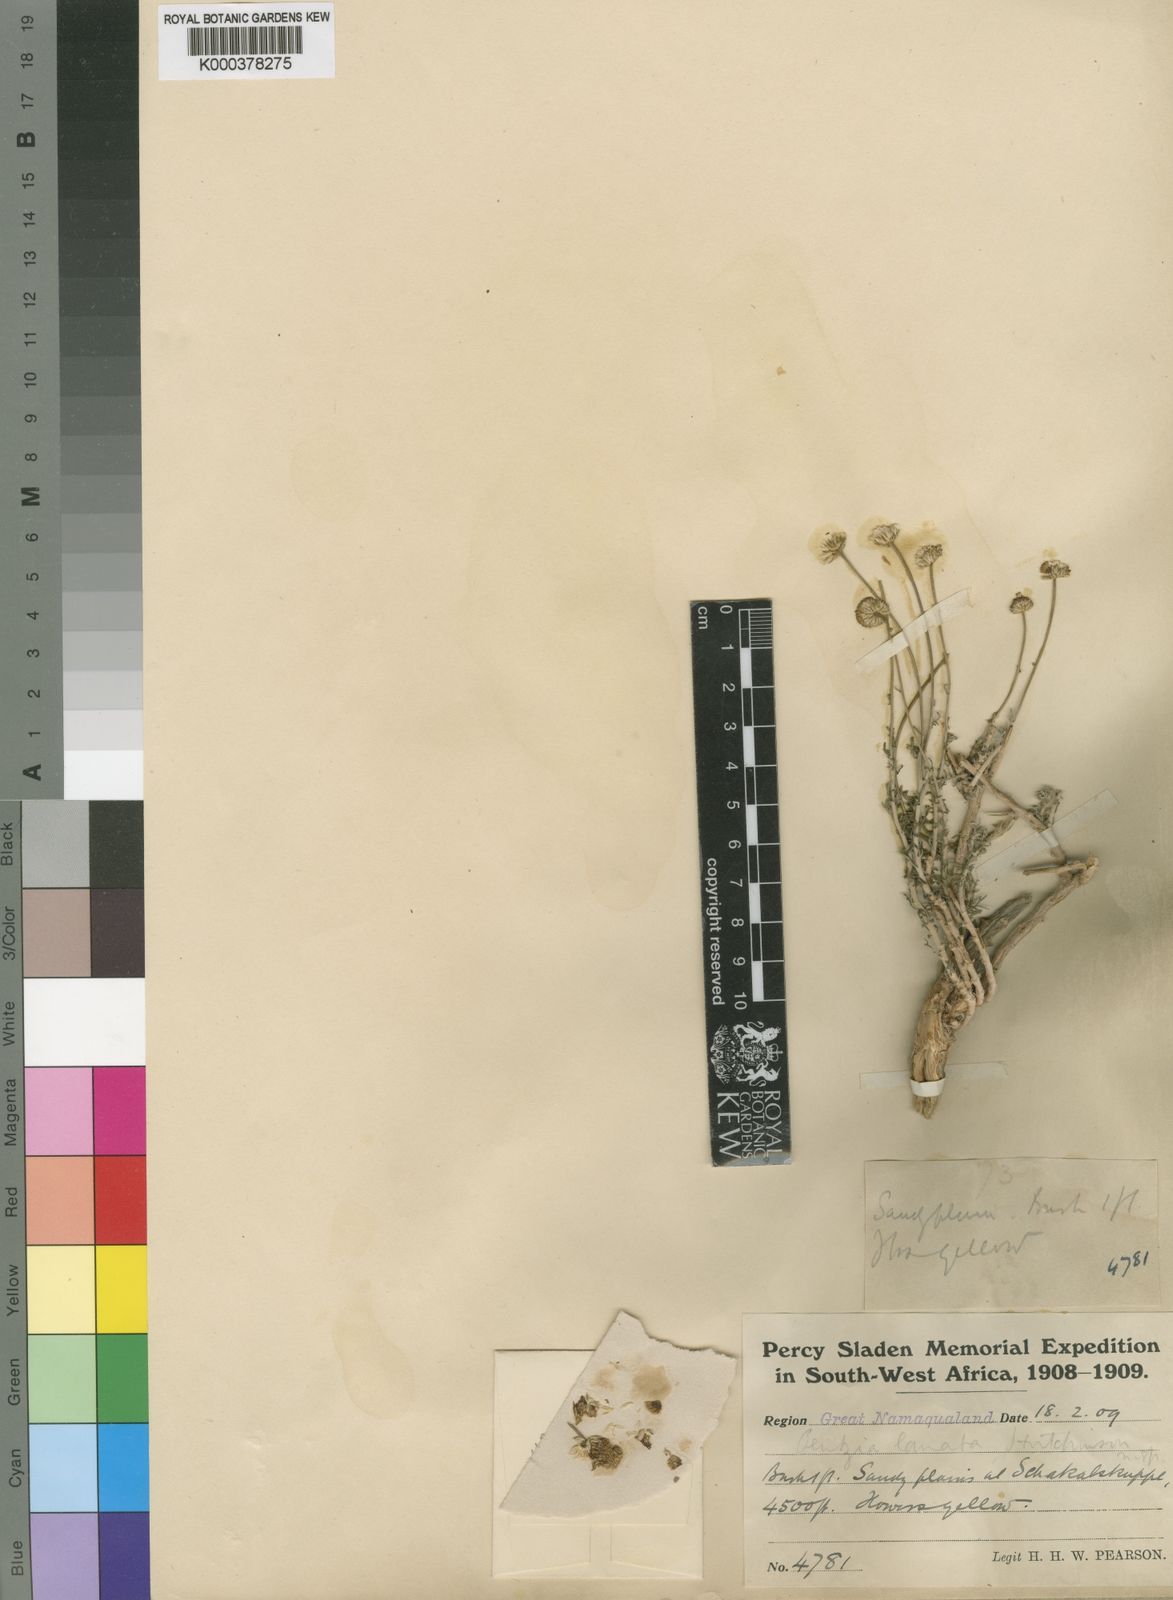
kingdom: Plantae
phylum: Tracheophyta
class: Magnoliopsida
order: Asterales
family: Asteraceae
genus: Pentzia
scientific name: Pentzia lanata
